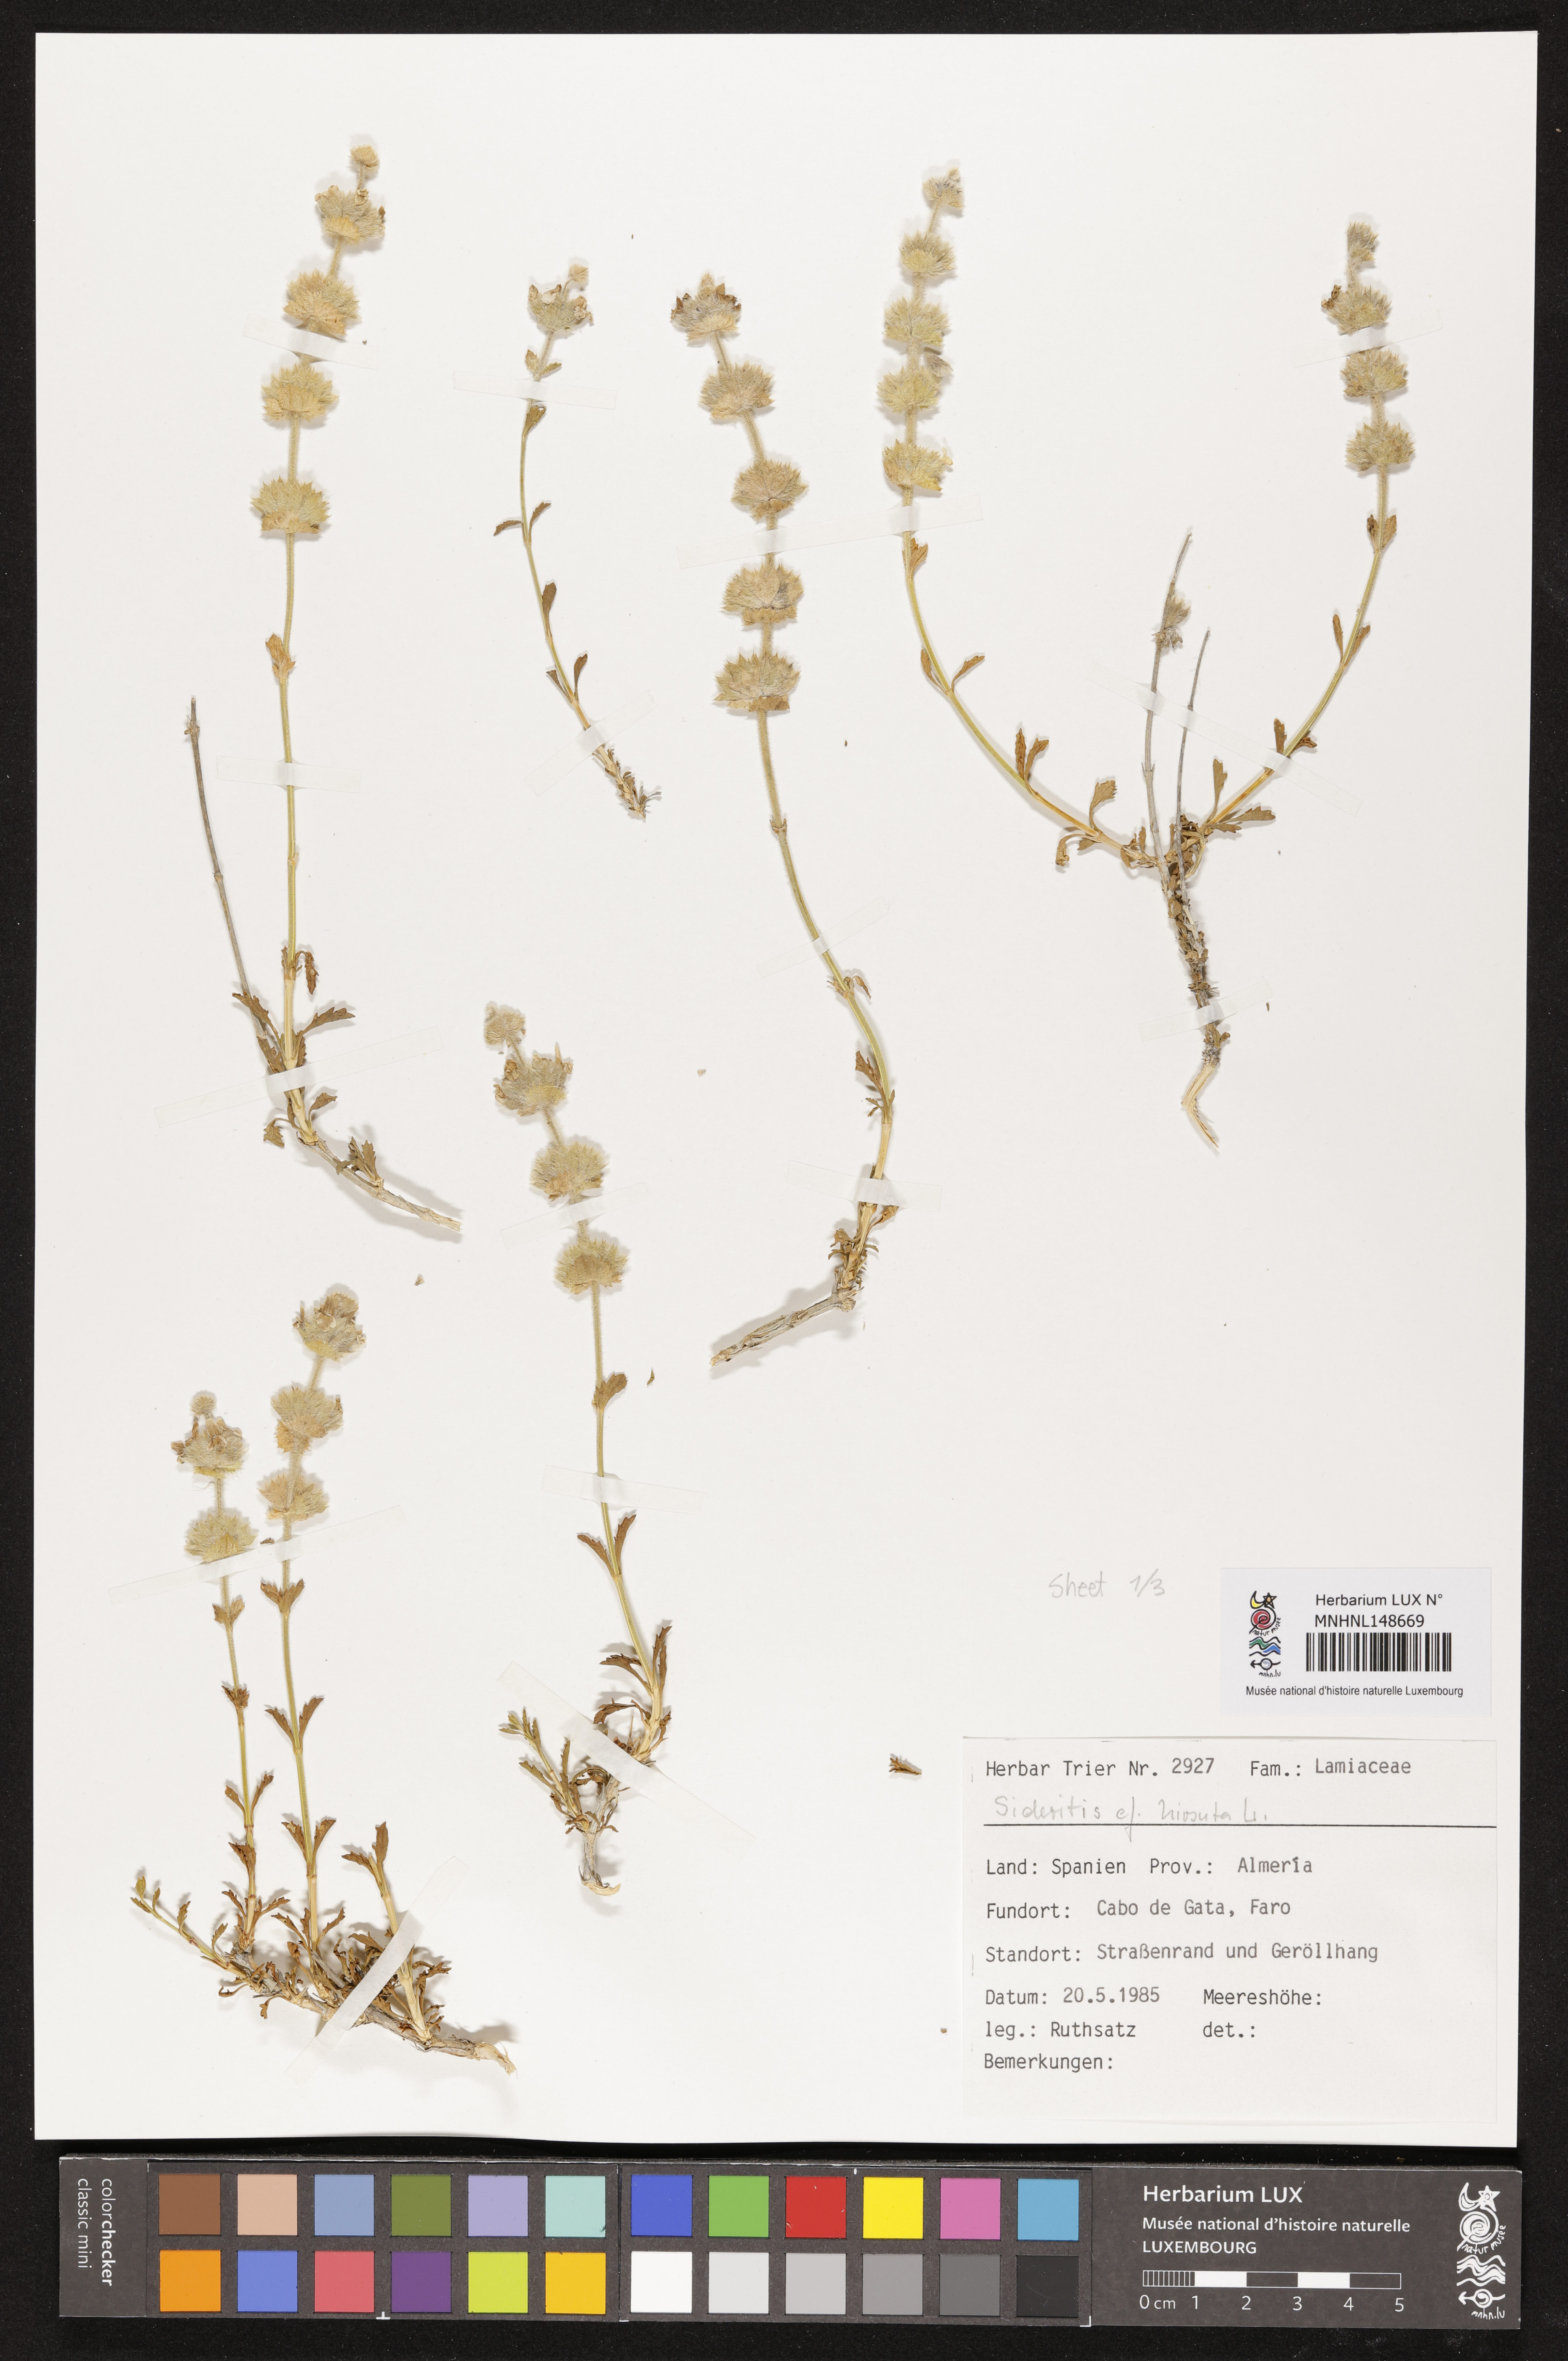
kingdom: Plantae
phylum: Tracheophyta
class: Magnoliopsida
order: Lamiales
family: Lamiaceae
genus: Sideritis
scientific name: Sideritis hirsuta
